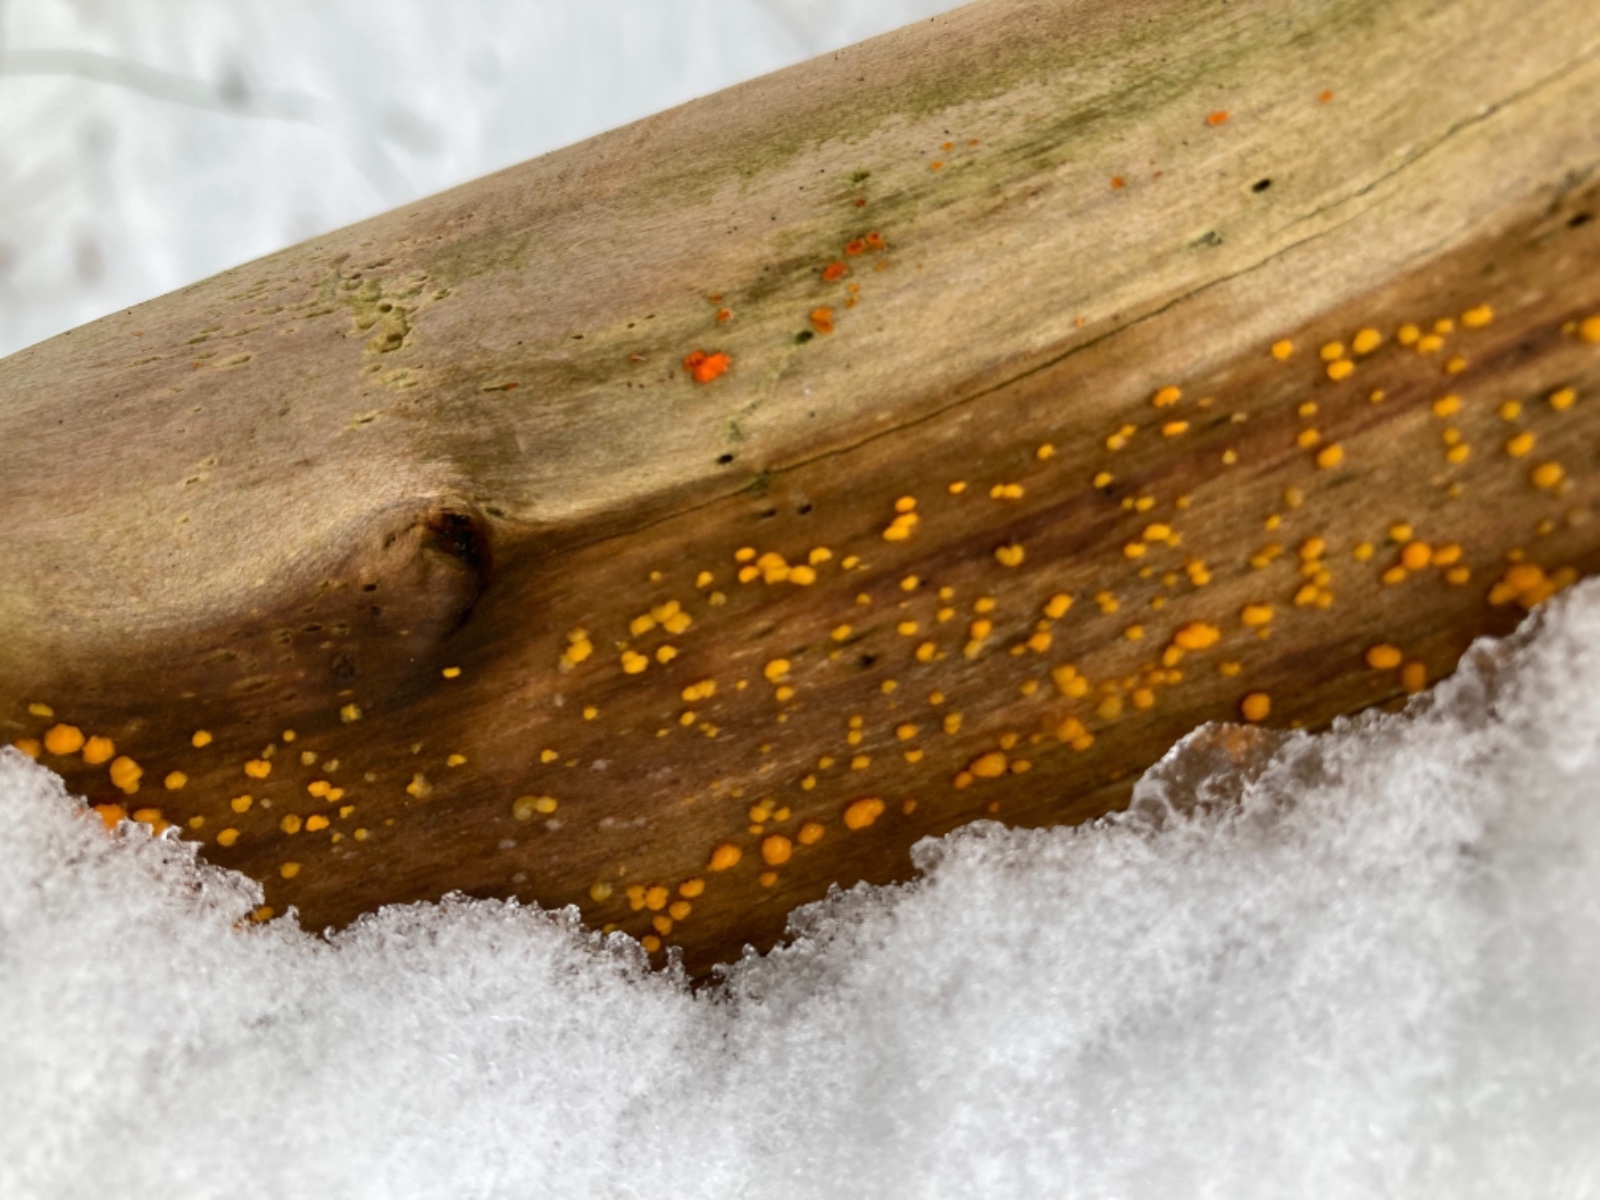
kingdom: Fungi
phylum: Basidiomycota
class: Dacrymycetes
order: Dacrymycetales
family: Dacrymycetaceae
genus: Dacrymyces
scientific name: Dacrymyces stillatus
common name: almindelig tåresvamp
